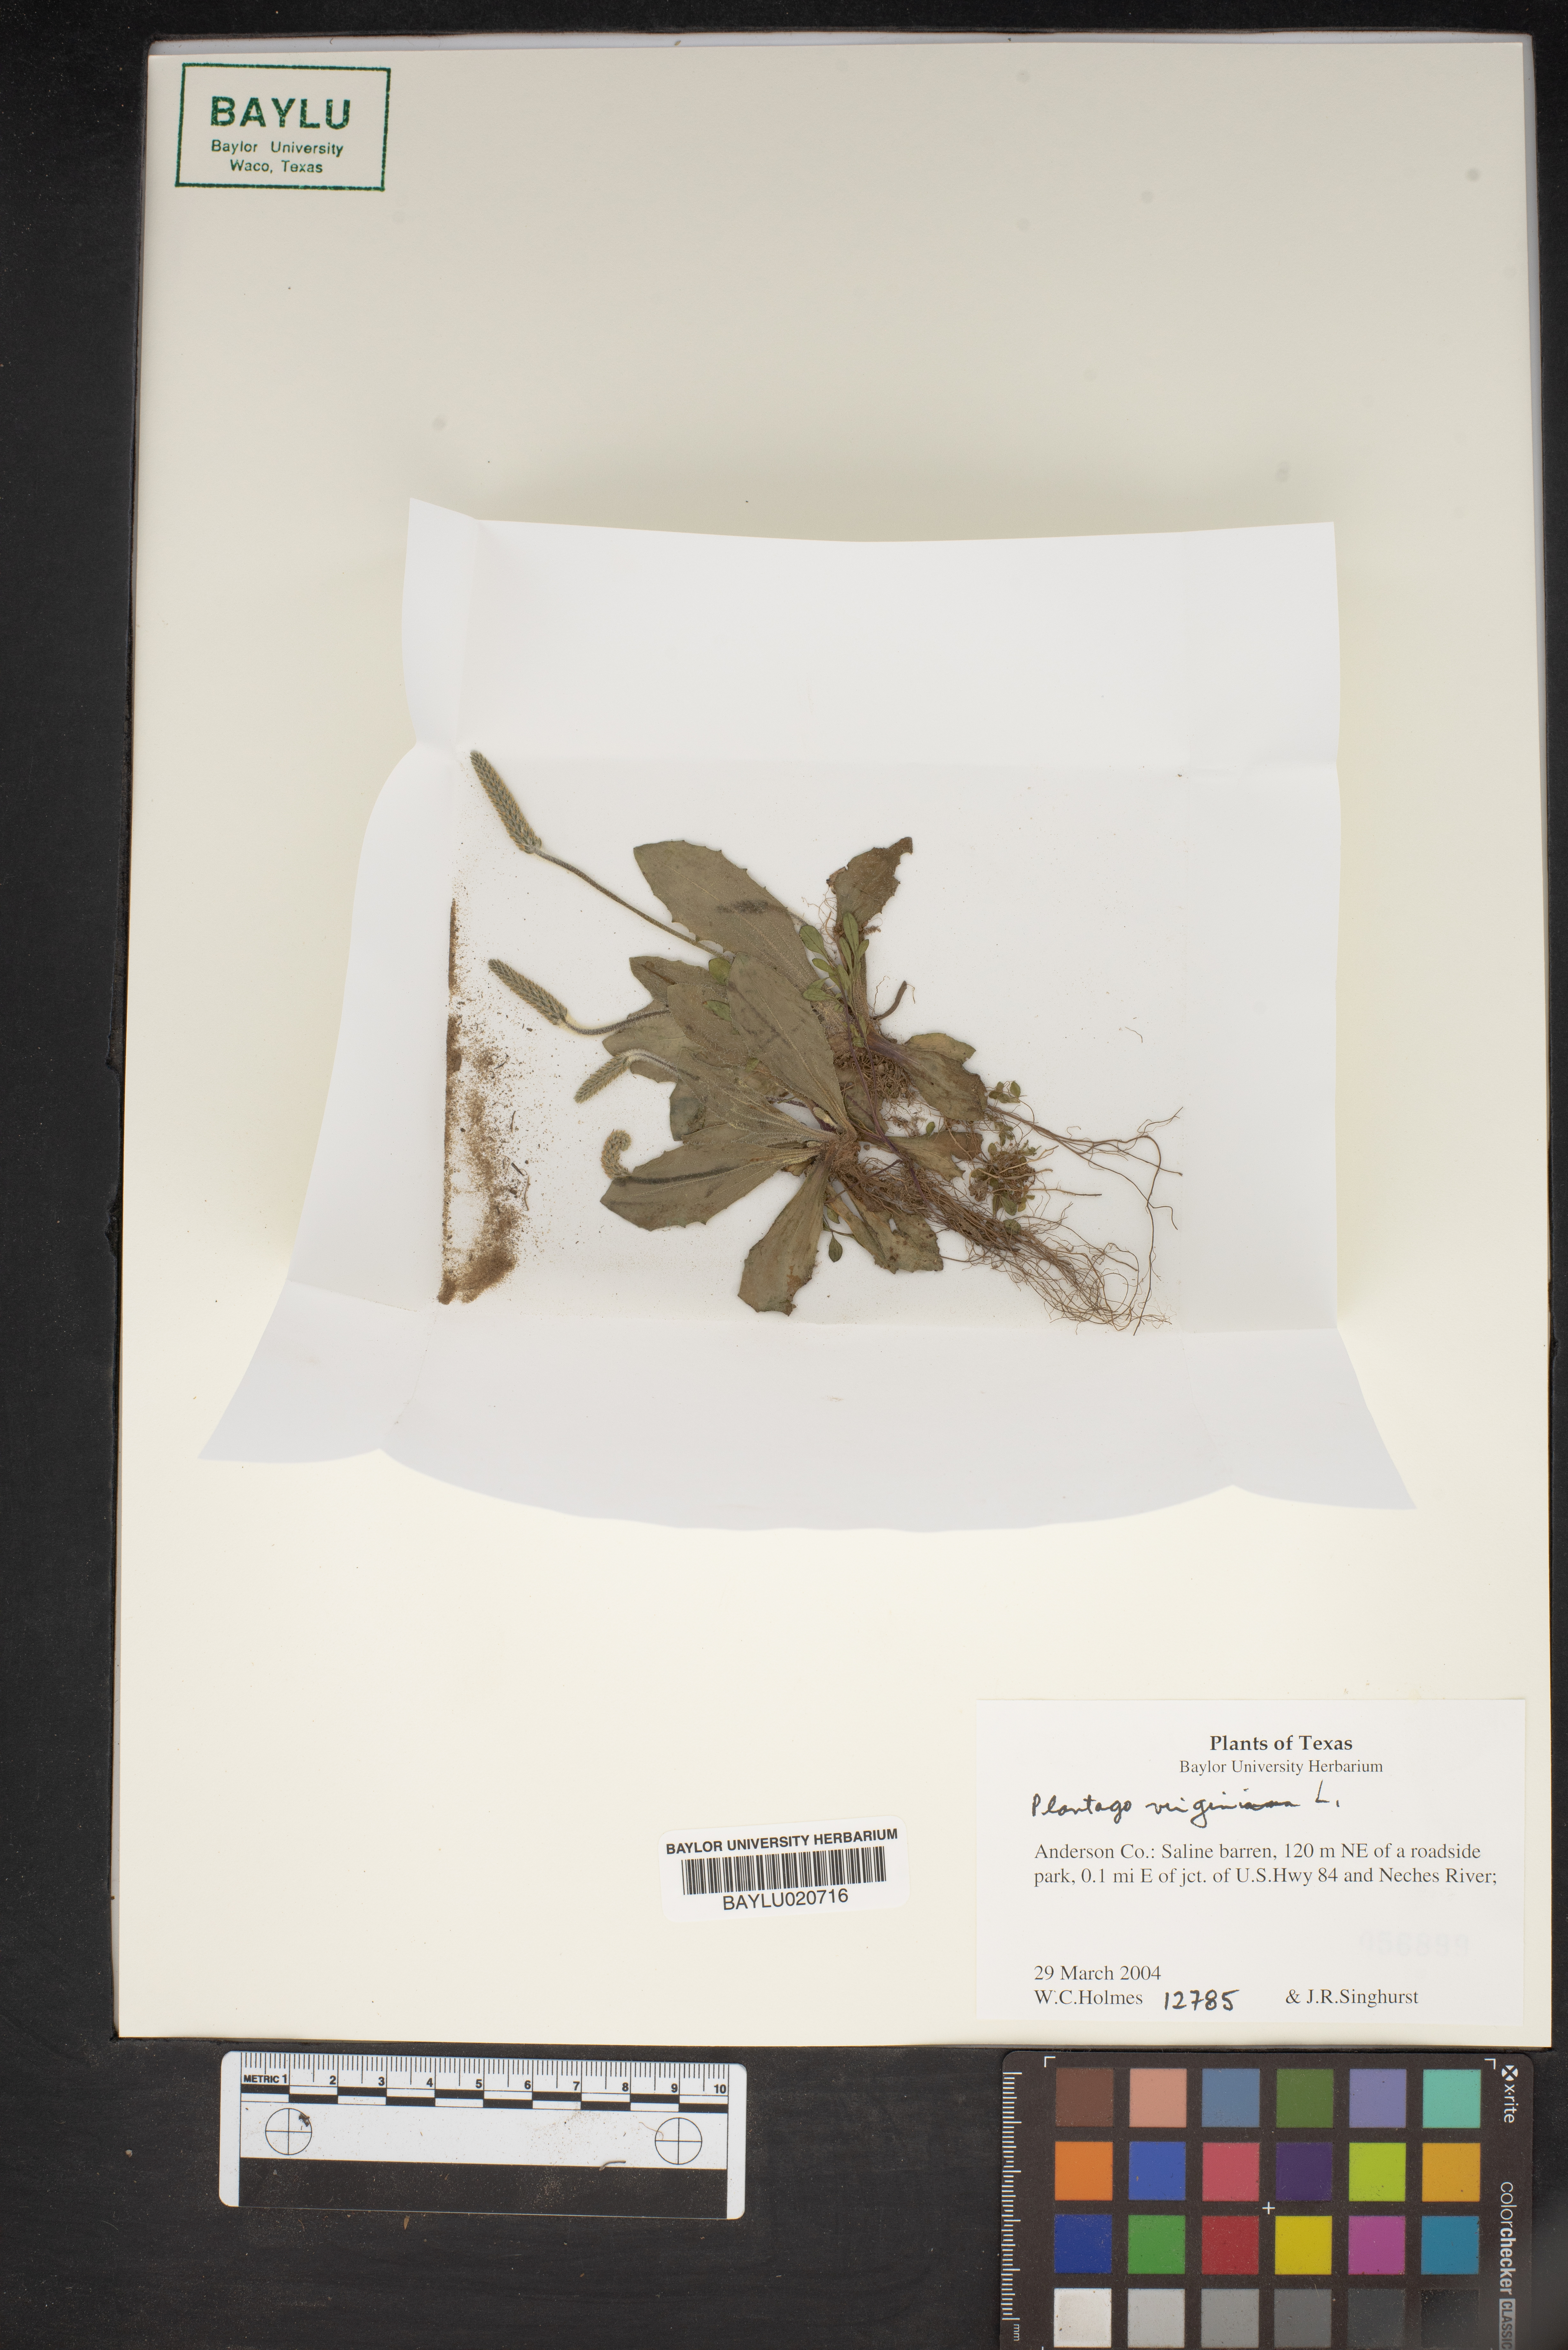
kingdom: Plantae
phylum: Tracheophyta
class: Magnoliopsida
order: Lamiales
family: Plantaginaceae
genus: Plantago
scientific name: Plantago virginica
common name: Hoary plantain
